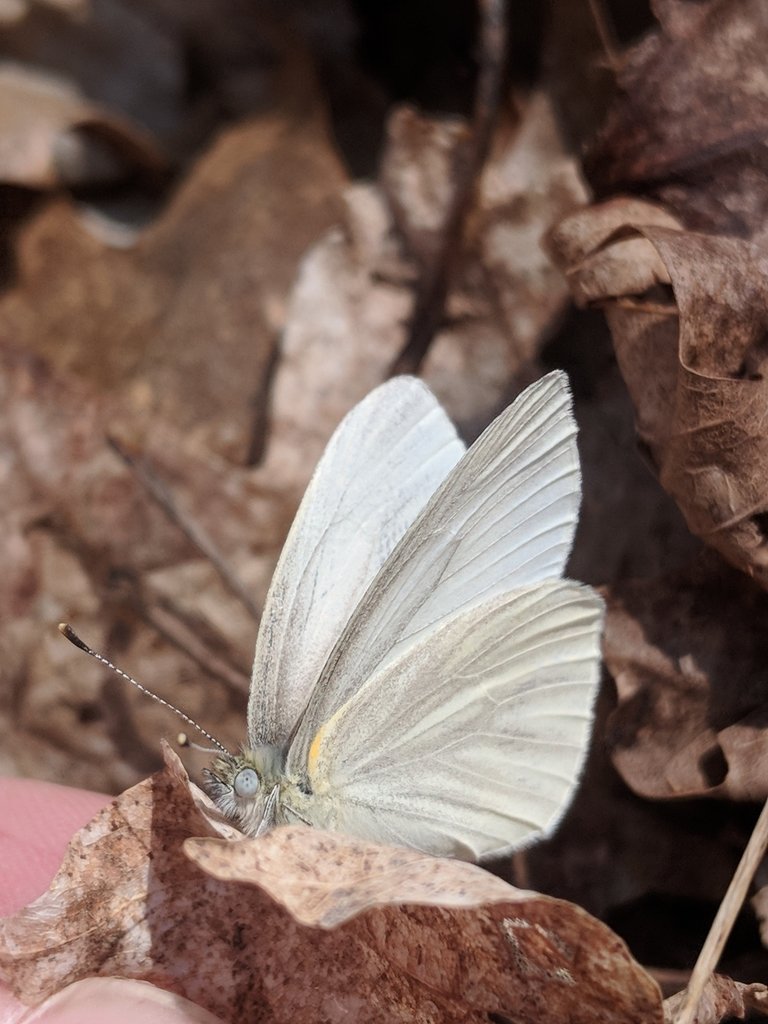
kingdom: Animalia
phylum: Arthropoda
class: Insecta
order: Lepidoptera
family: Pieridae
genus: Pieris
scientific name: Pieris virginiensis
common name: West Virginia White
